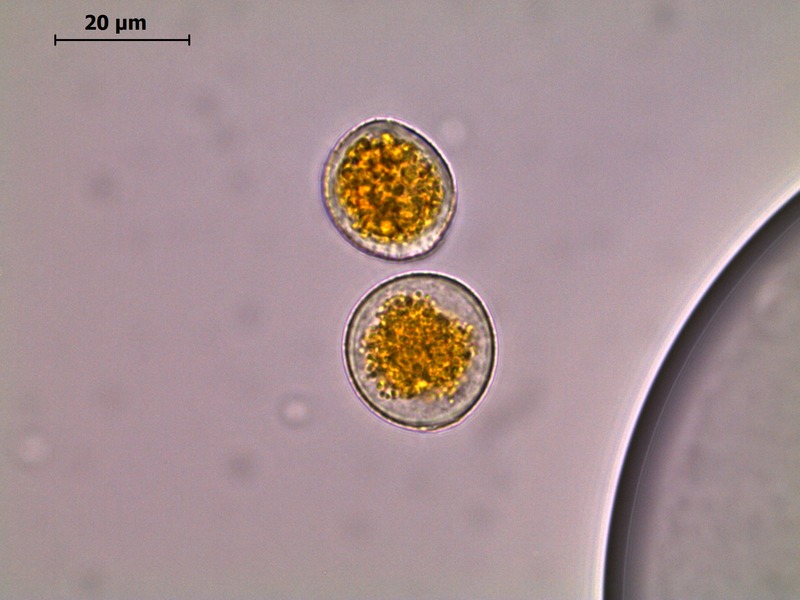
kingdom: Fungi
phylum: Basidiomycota
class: Pucciniomycetes
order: Pucciniales
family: Pucciniaceae
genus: Puccinia
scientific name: Puccinia coronata
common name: Crown rust
